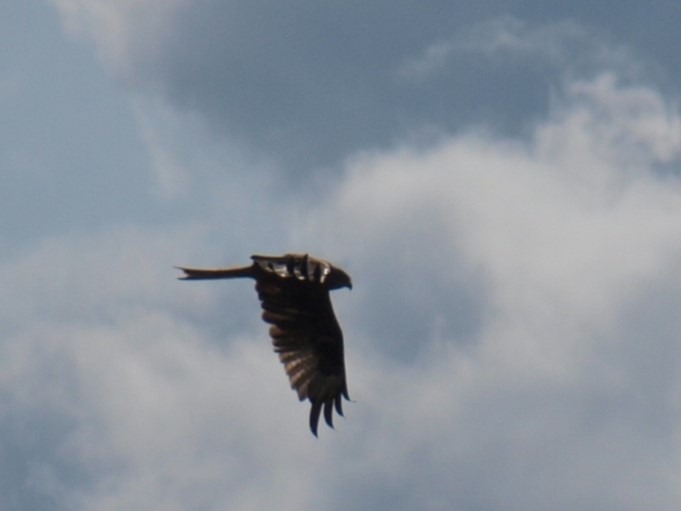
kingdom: Animalia
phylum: Chordata
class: Aves
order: Accipitriformes
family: Accipitridae
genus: Milvus
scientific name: Milvus milvus
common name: Rød glente
